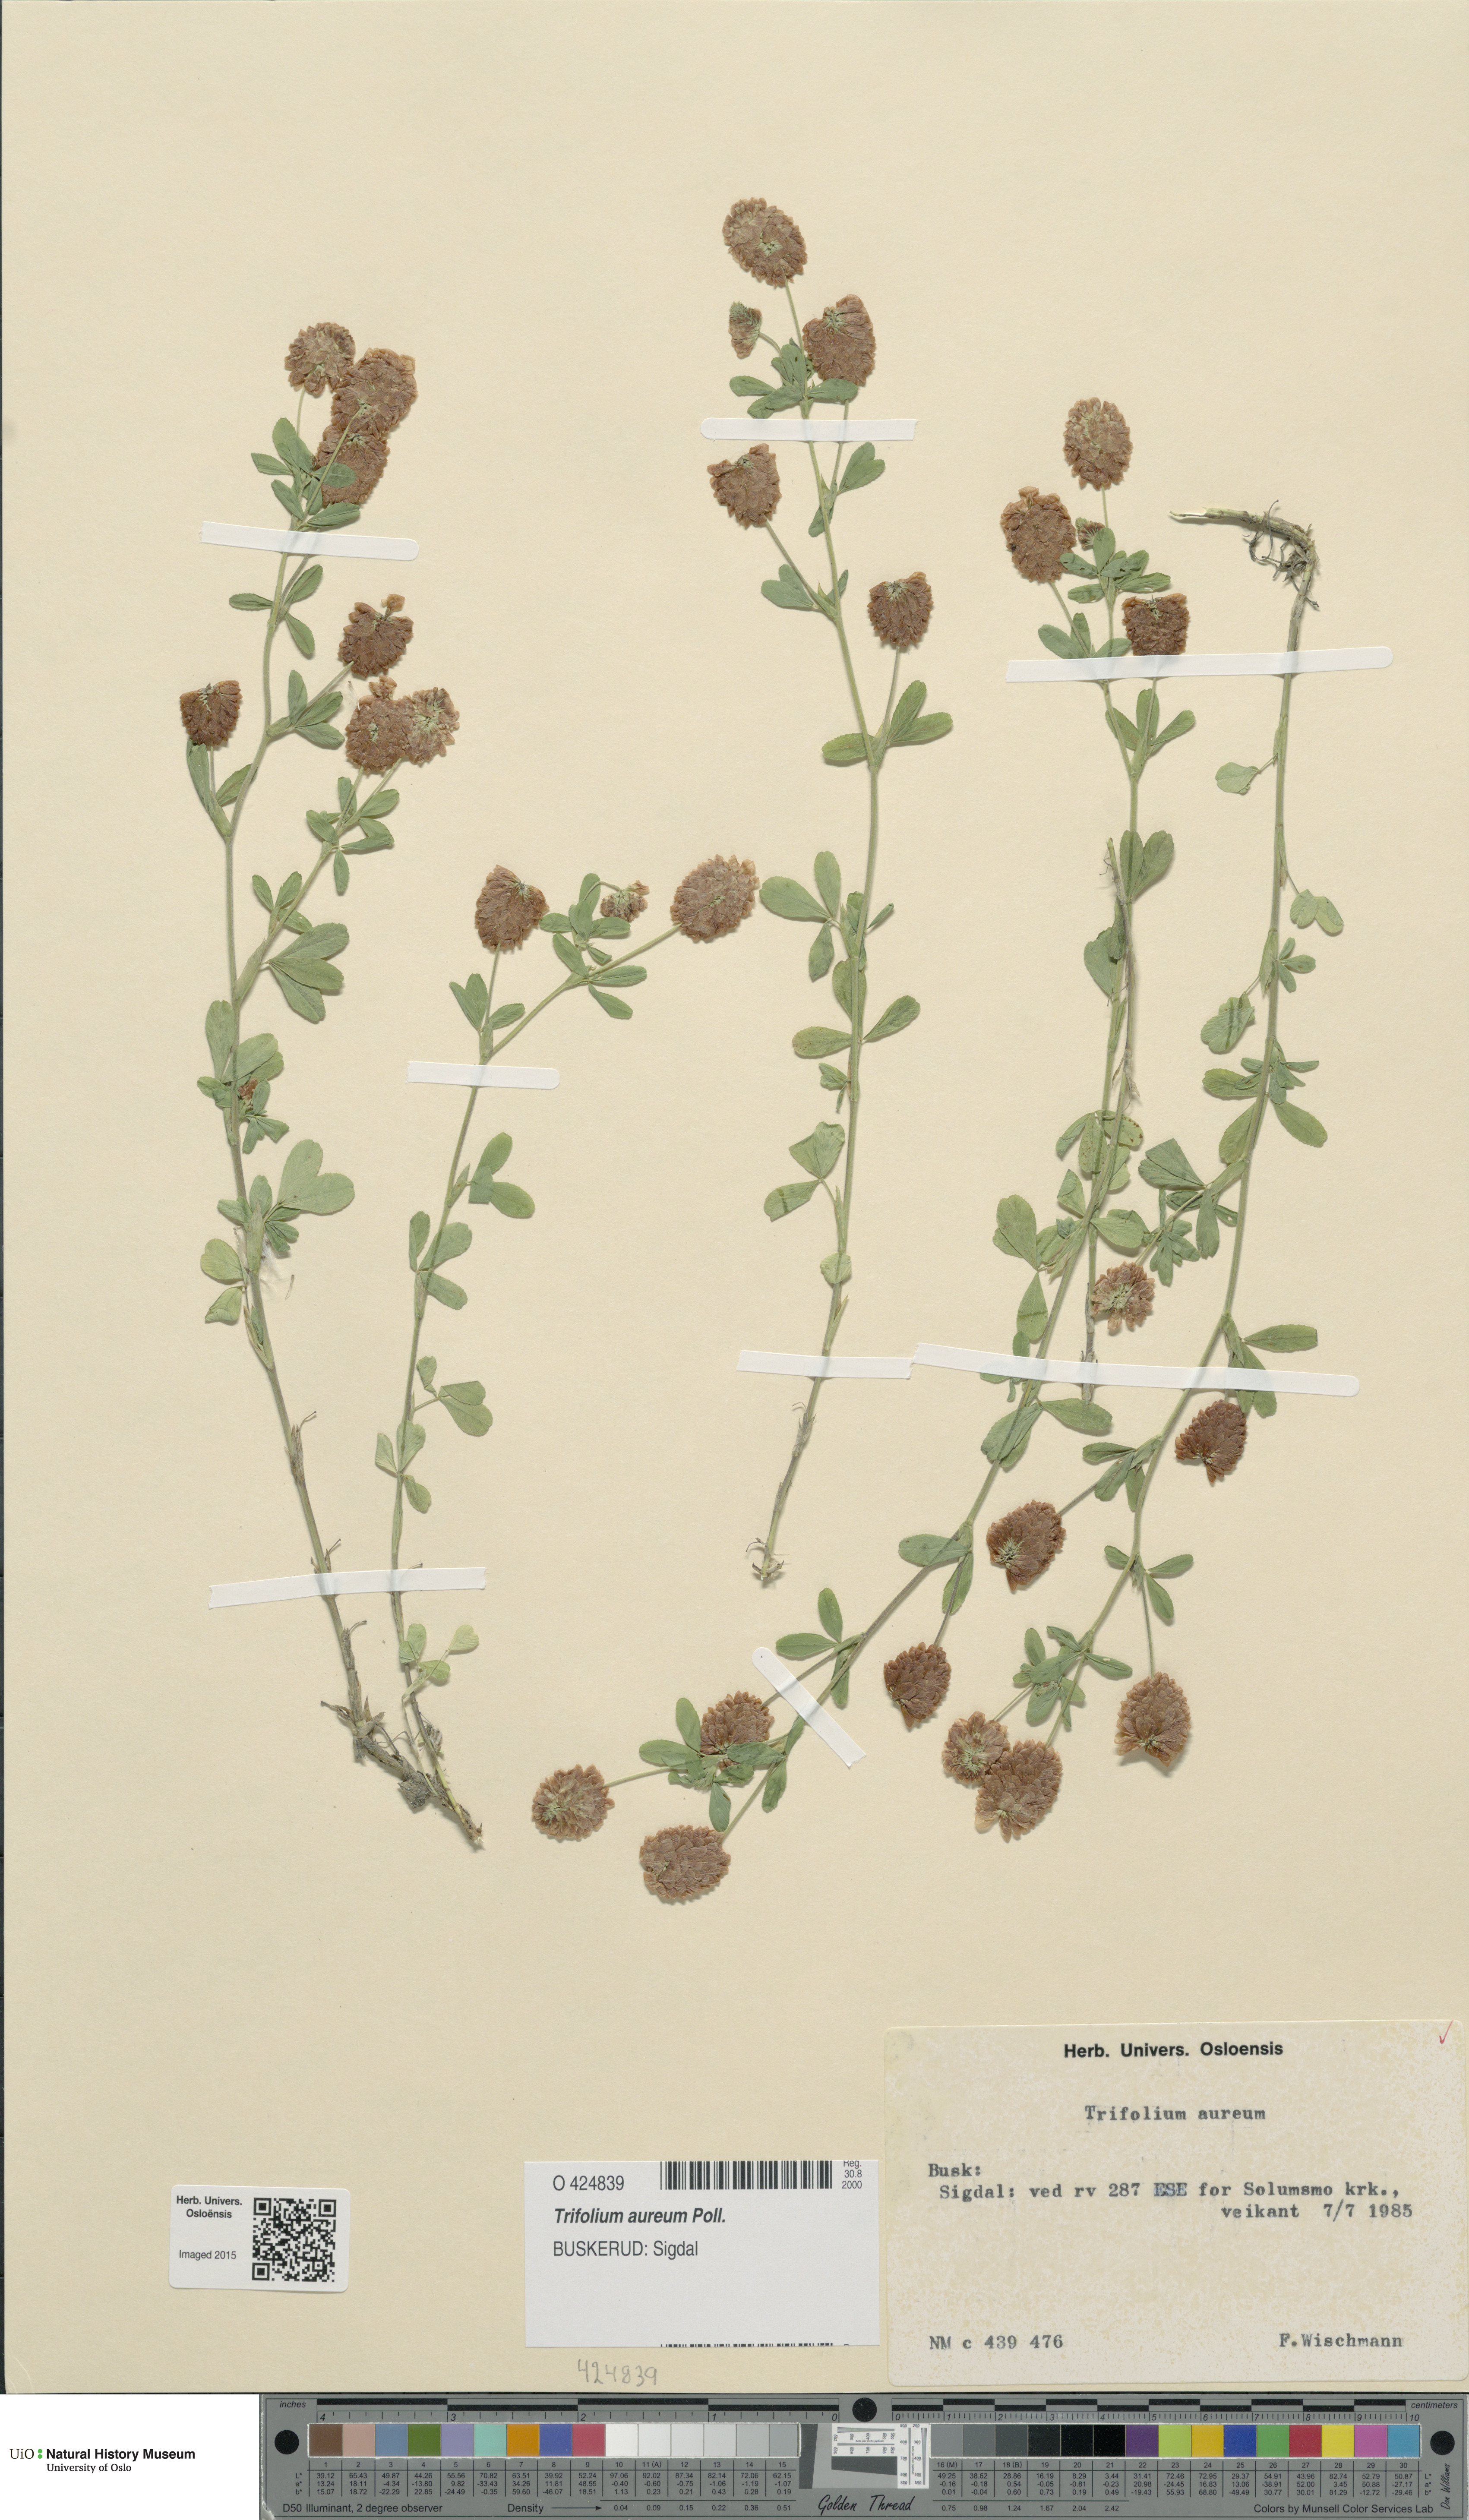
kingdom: Plantae
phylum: Tracheophyta
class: Magnoliopsida
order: Fabales
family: Fabaceae
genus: Trifolium
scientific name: Trifolium aureum
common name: Golden clover
